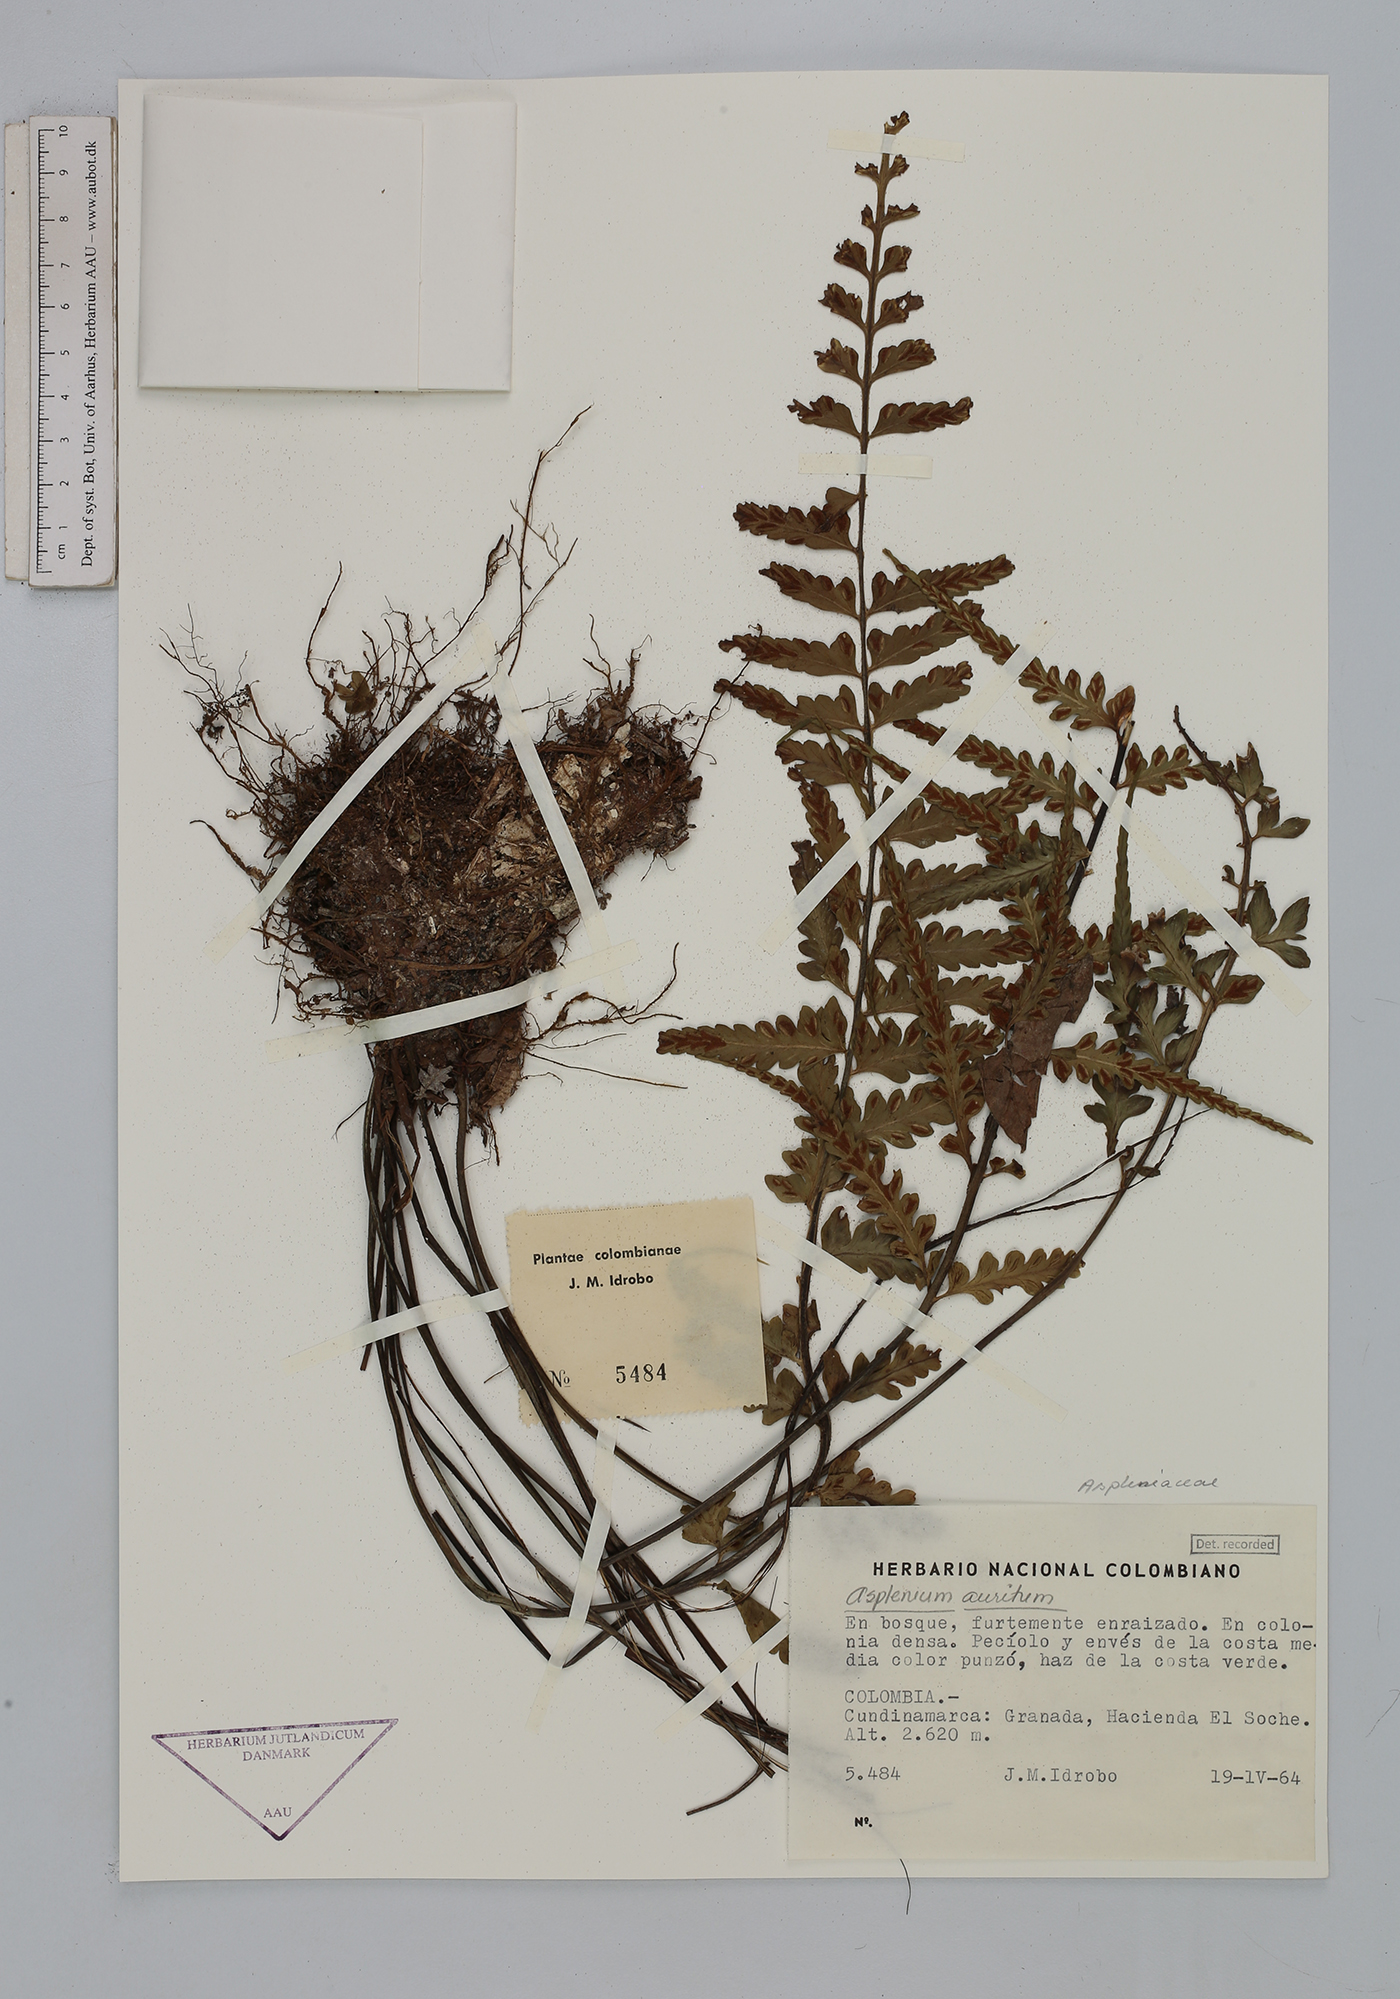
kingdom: Plantae
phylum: Tracheophyta
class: Polypodiopsida
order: Polypodiales
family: Aspleniaceae
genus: Asplenium
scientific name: Asplenium auritum
